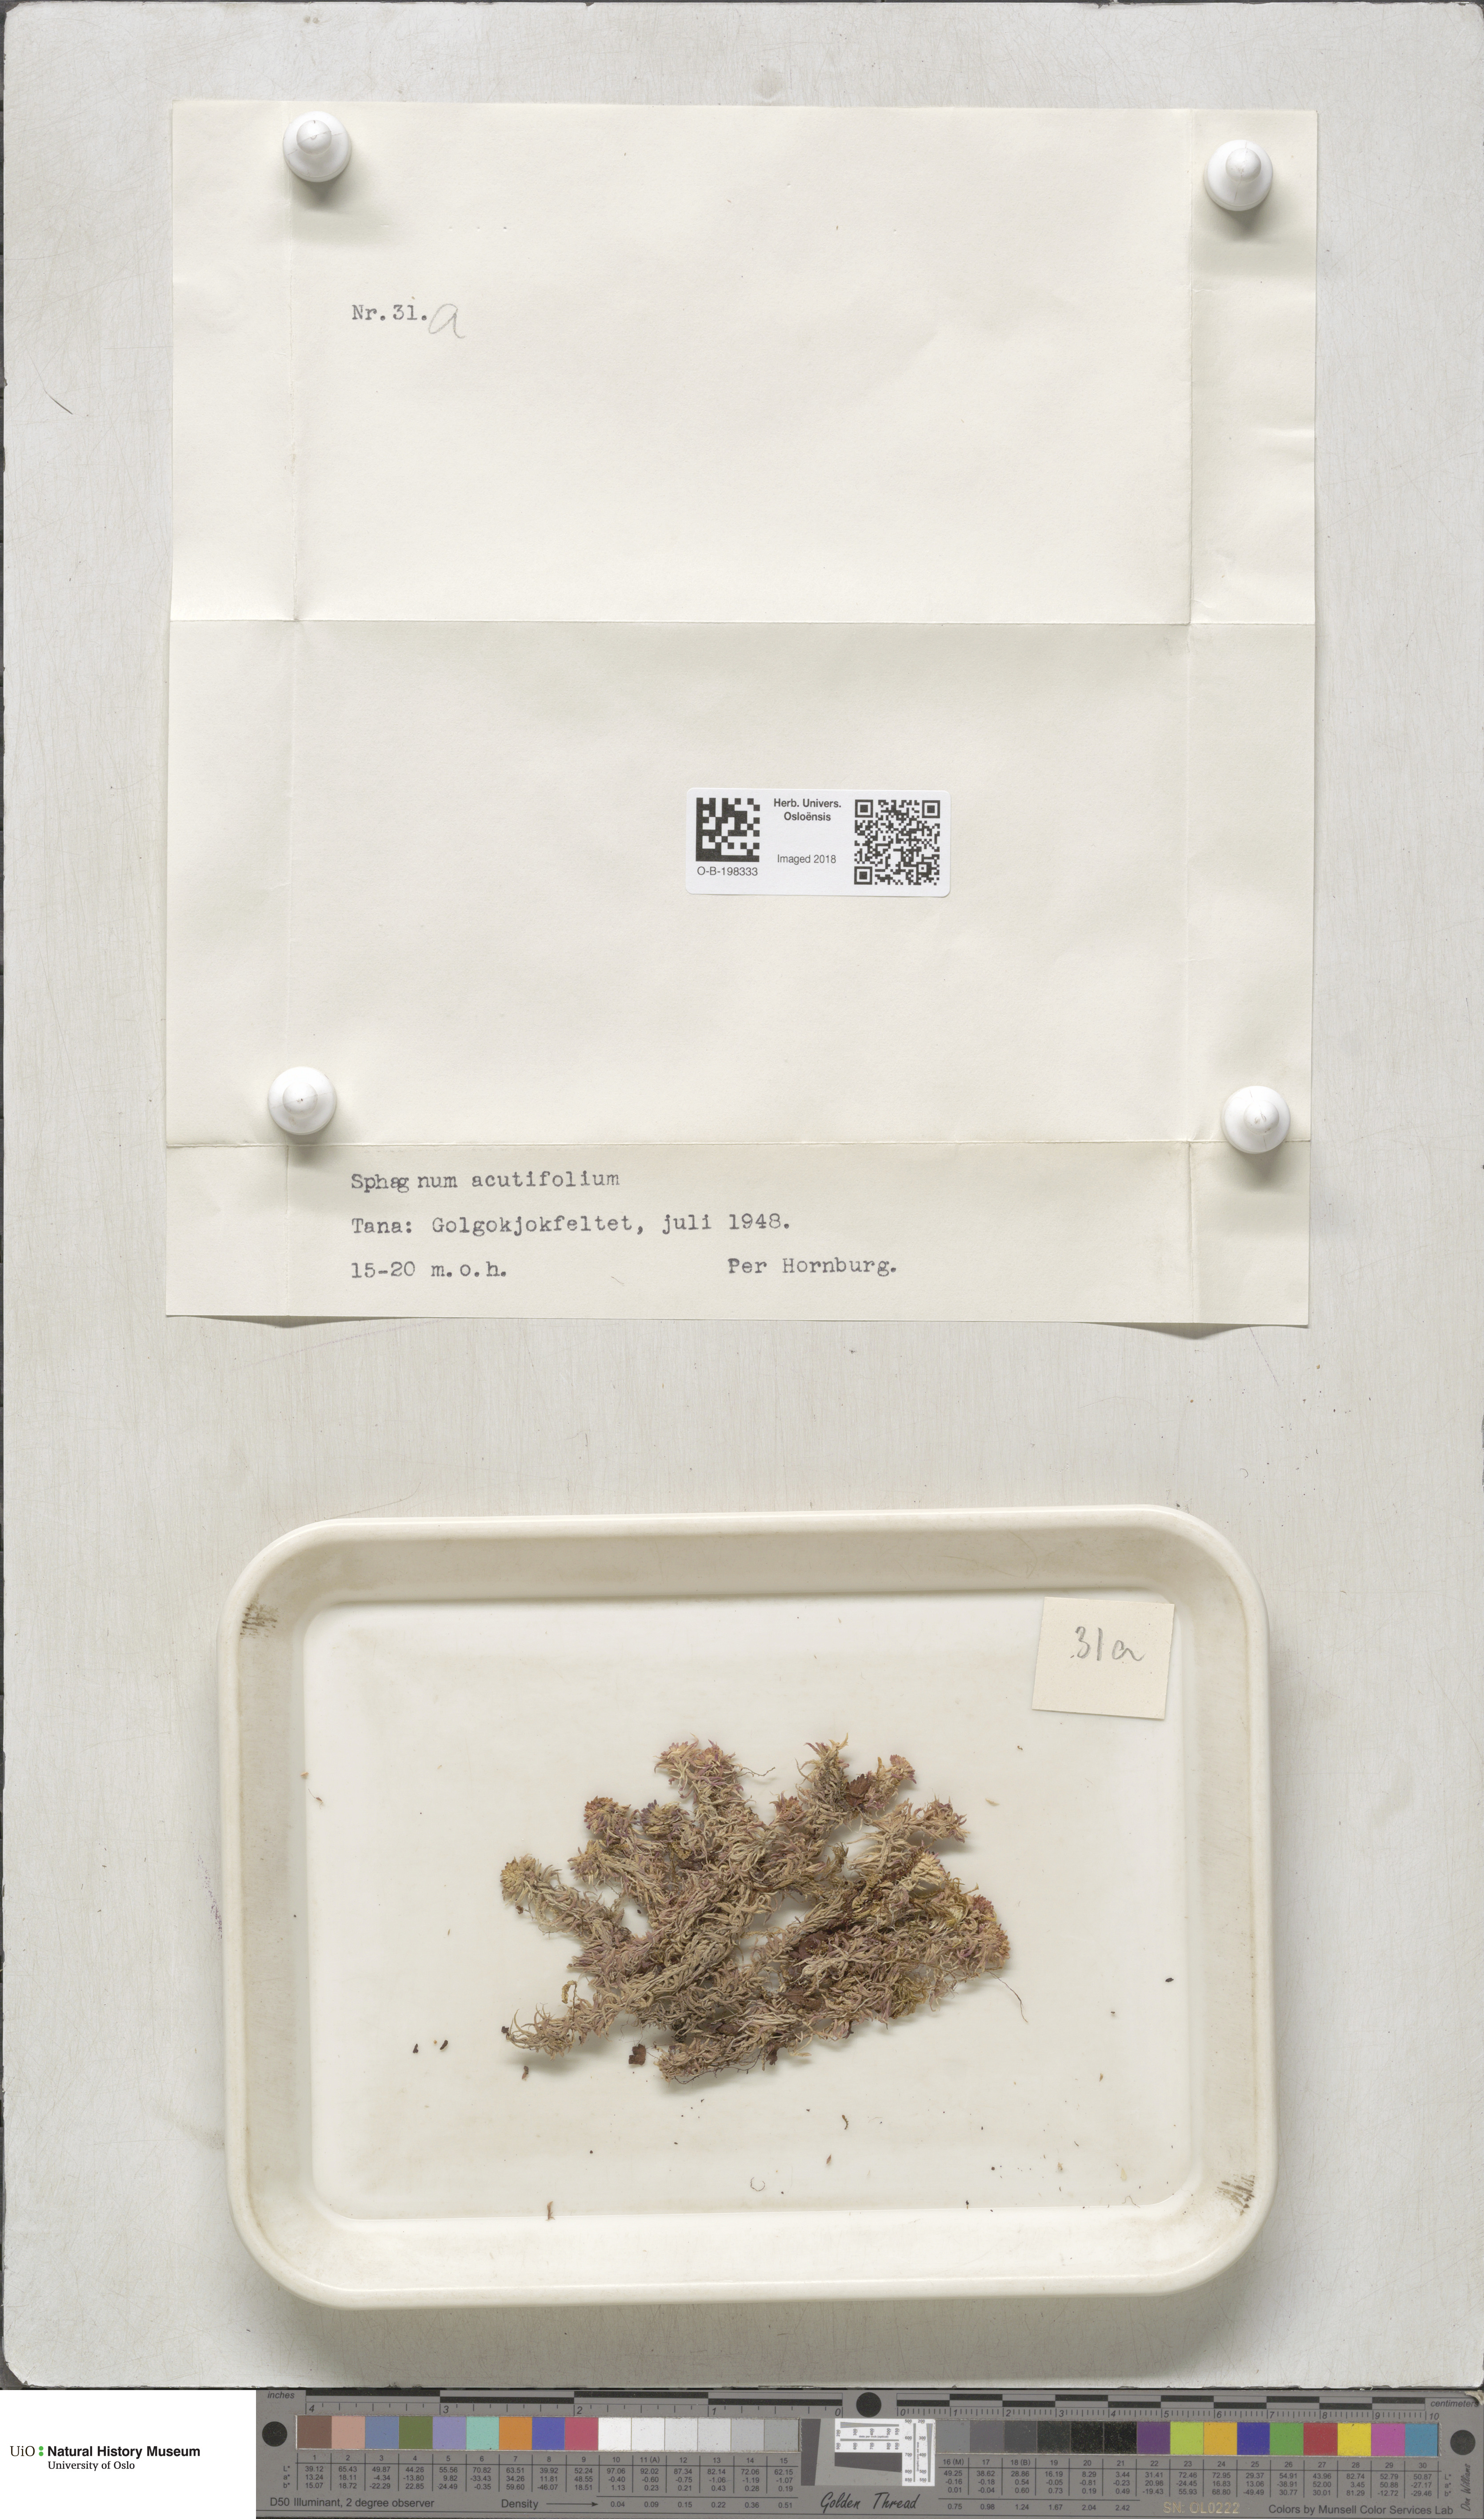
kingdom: Plantae
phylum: Bryophyta
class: Sphagnopsida
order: Sphagnales
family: Sphagnaceae
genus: Sphagnum
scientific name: Sphagnum capillifolium
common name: Small red peat moss
